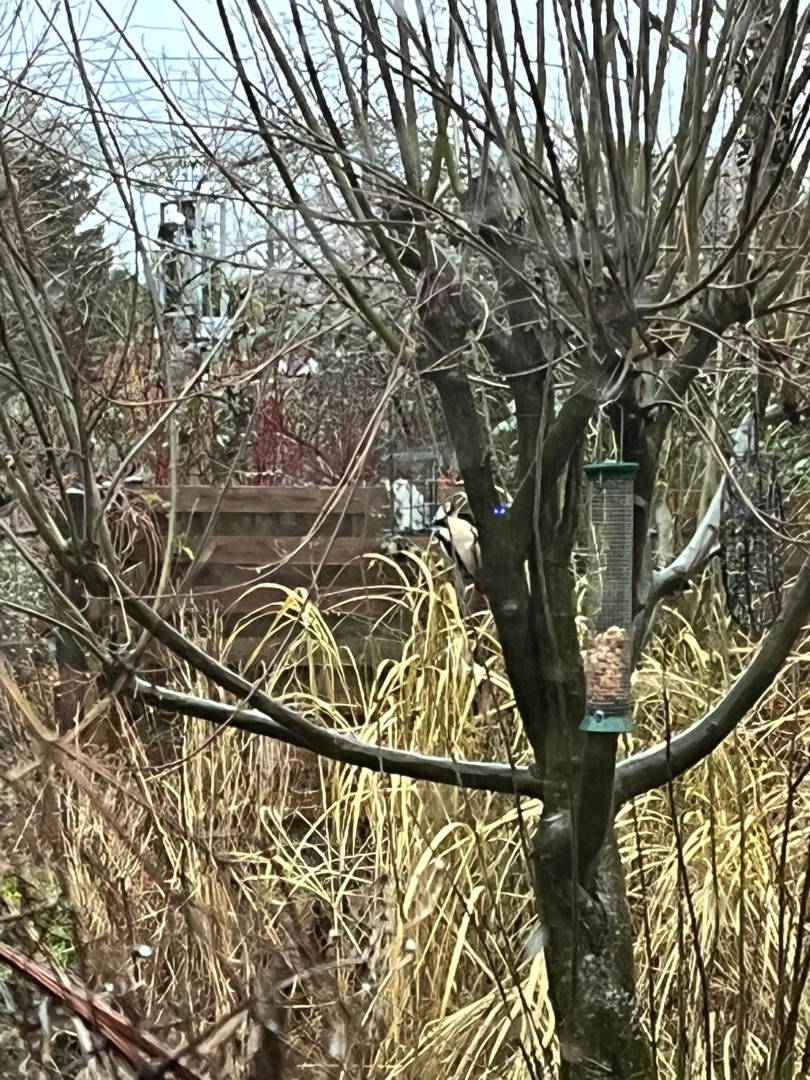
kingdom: Animalia
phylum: Chordata
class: Aves
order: Piciformes
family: Picidae
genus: Dendrocopos
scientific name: Dendrocopos major
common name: Stor flagspætte
